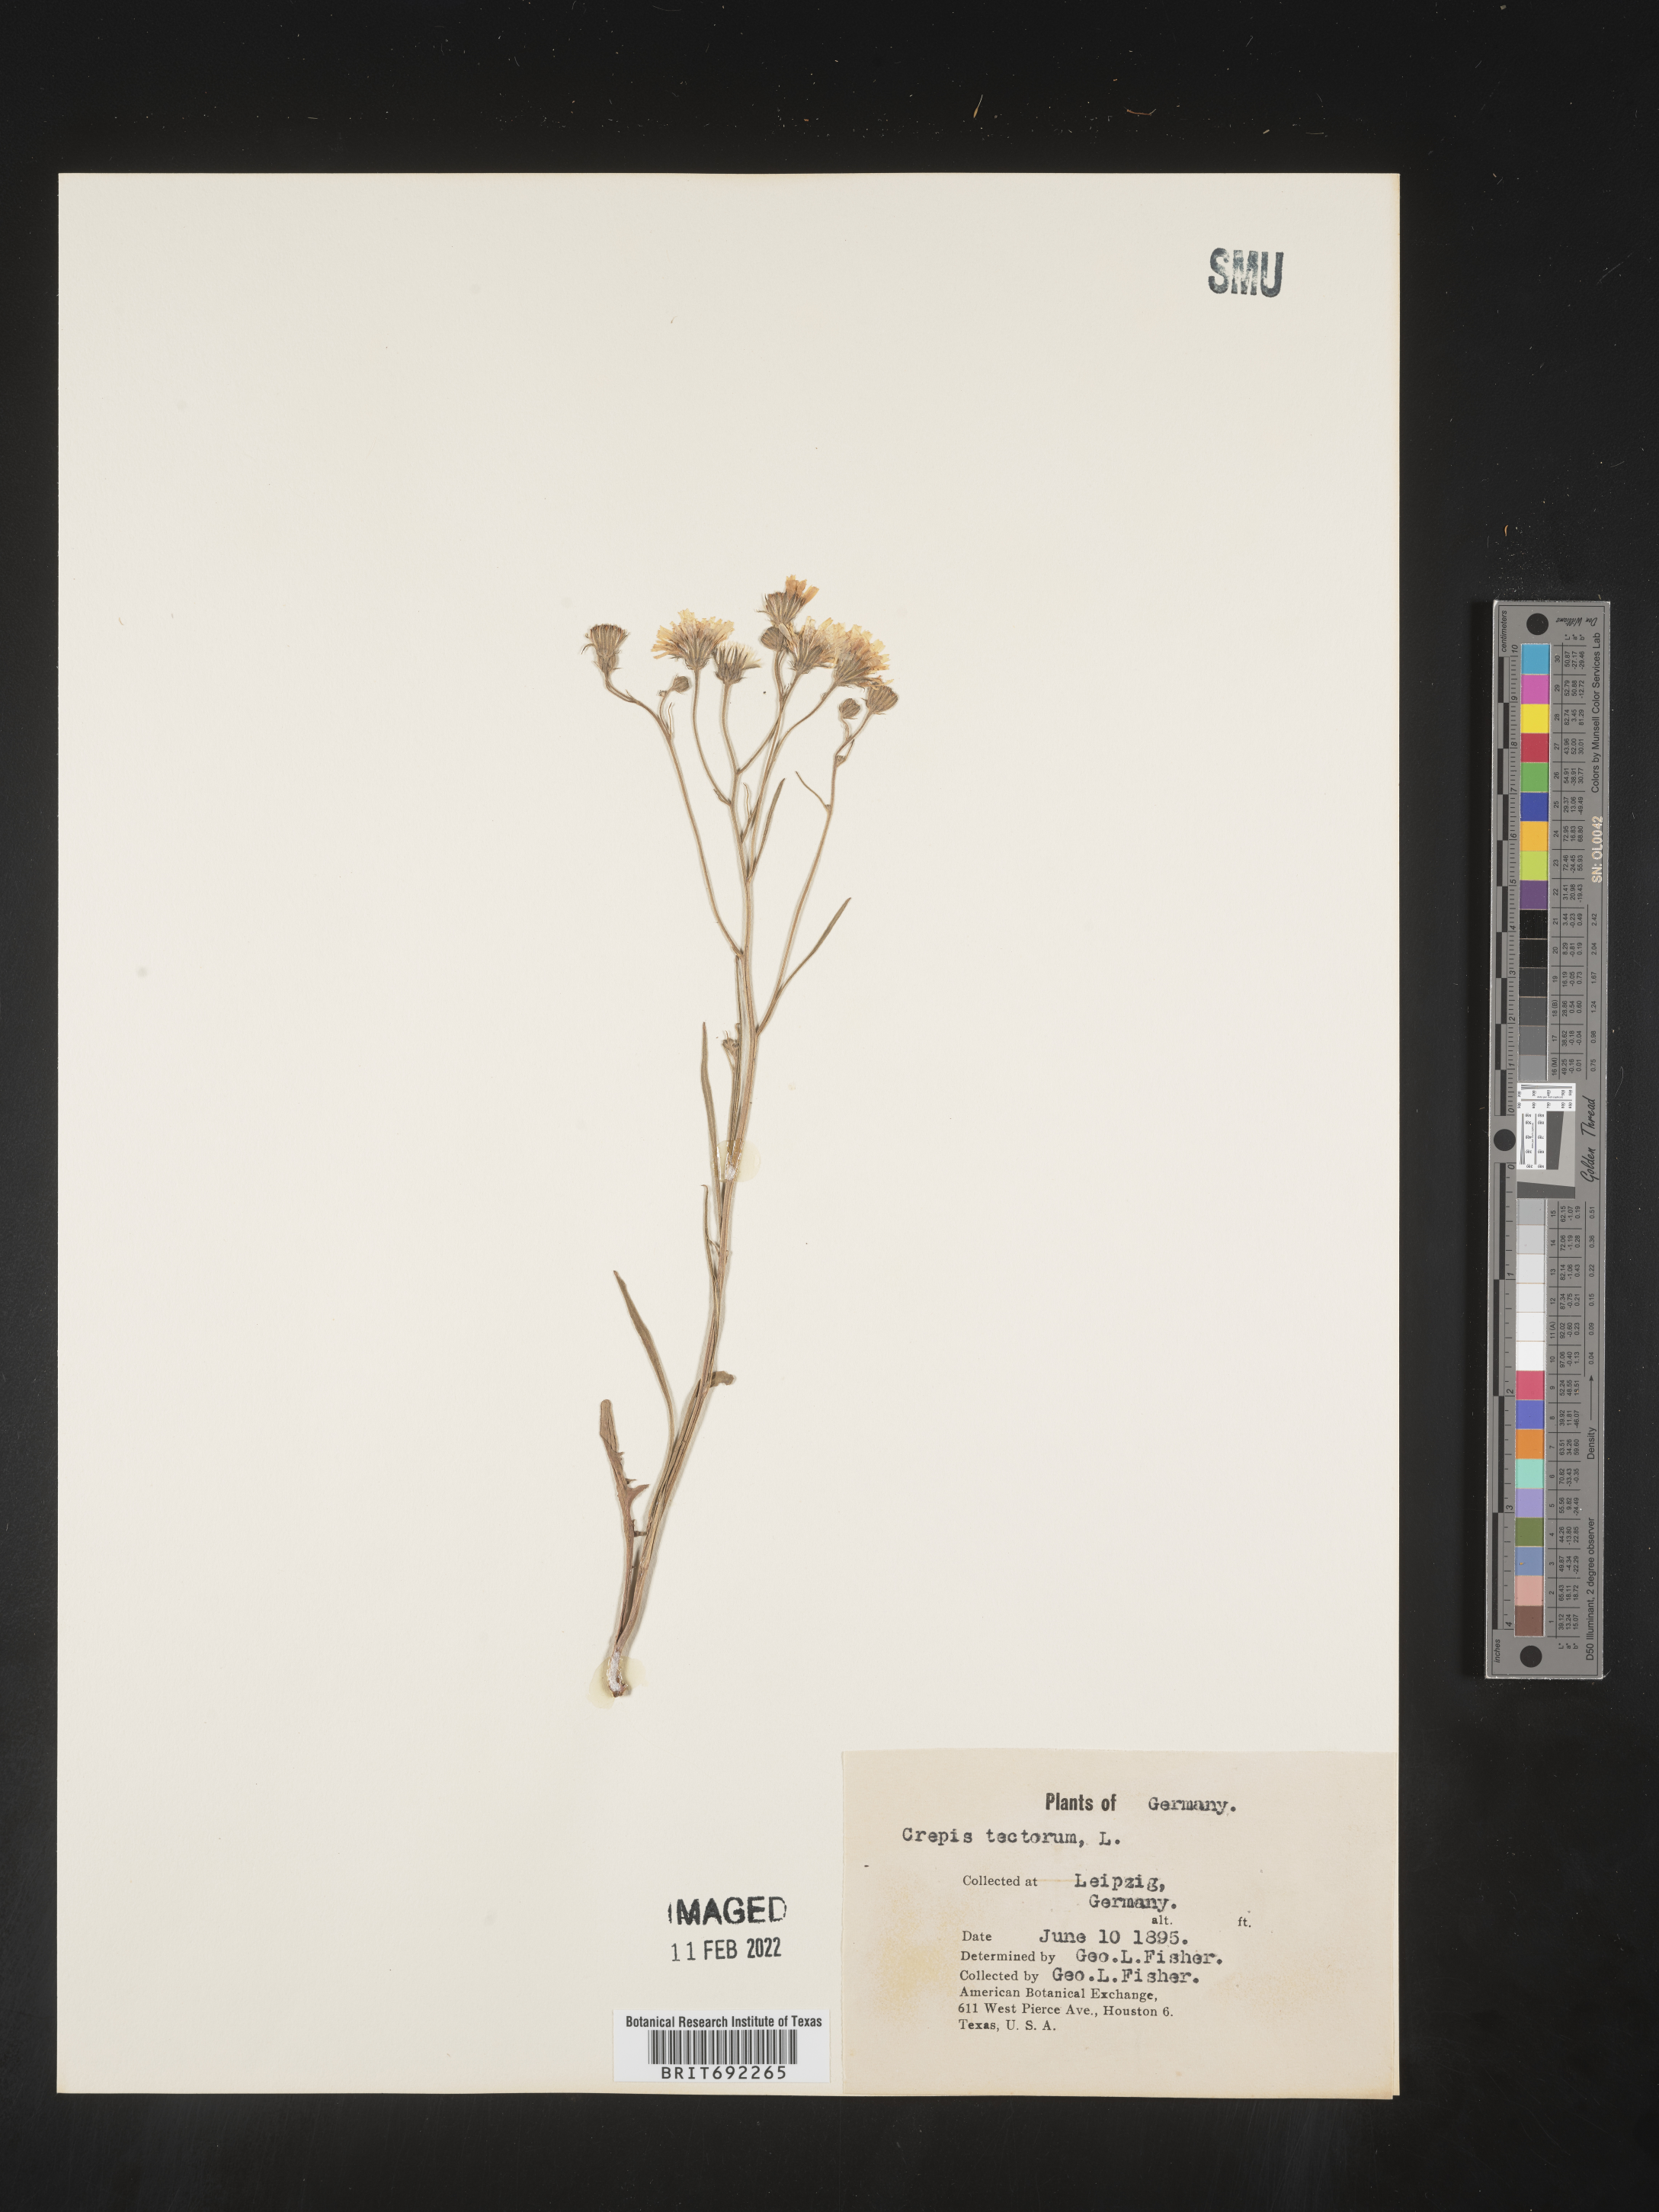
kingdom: Plantae
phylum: Tracheophyta
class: Magnoliopsida
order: Asterales
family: Asteraceae
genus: Crepis
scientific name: Crepis
